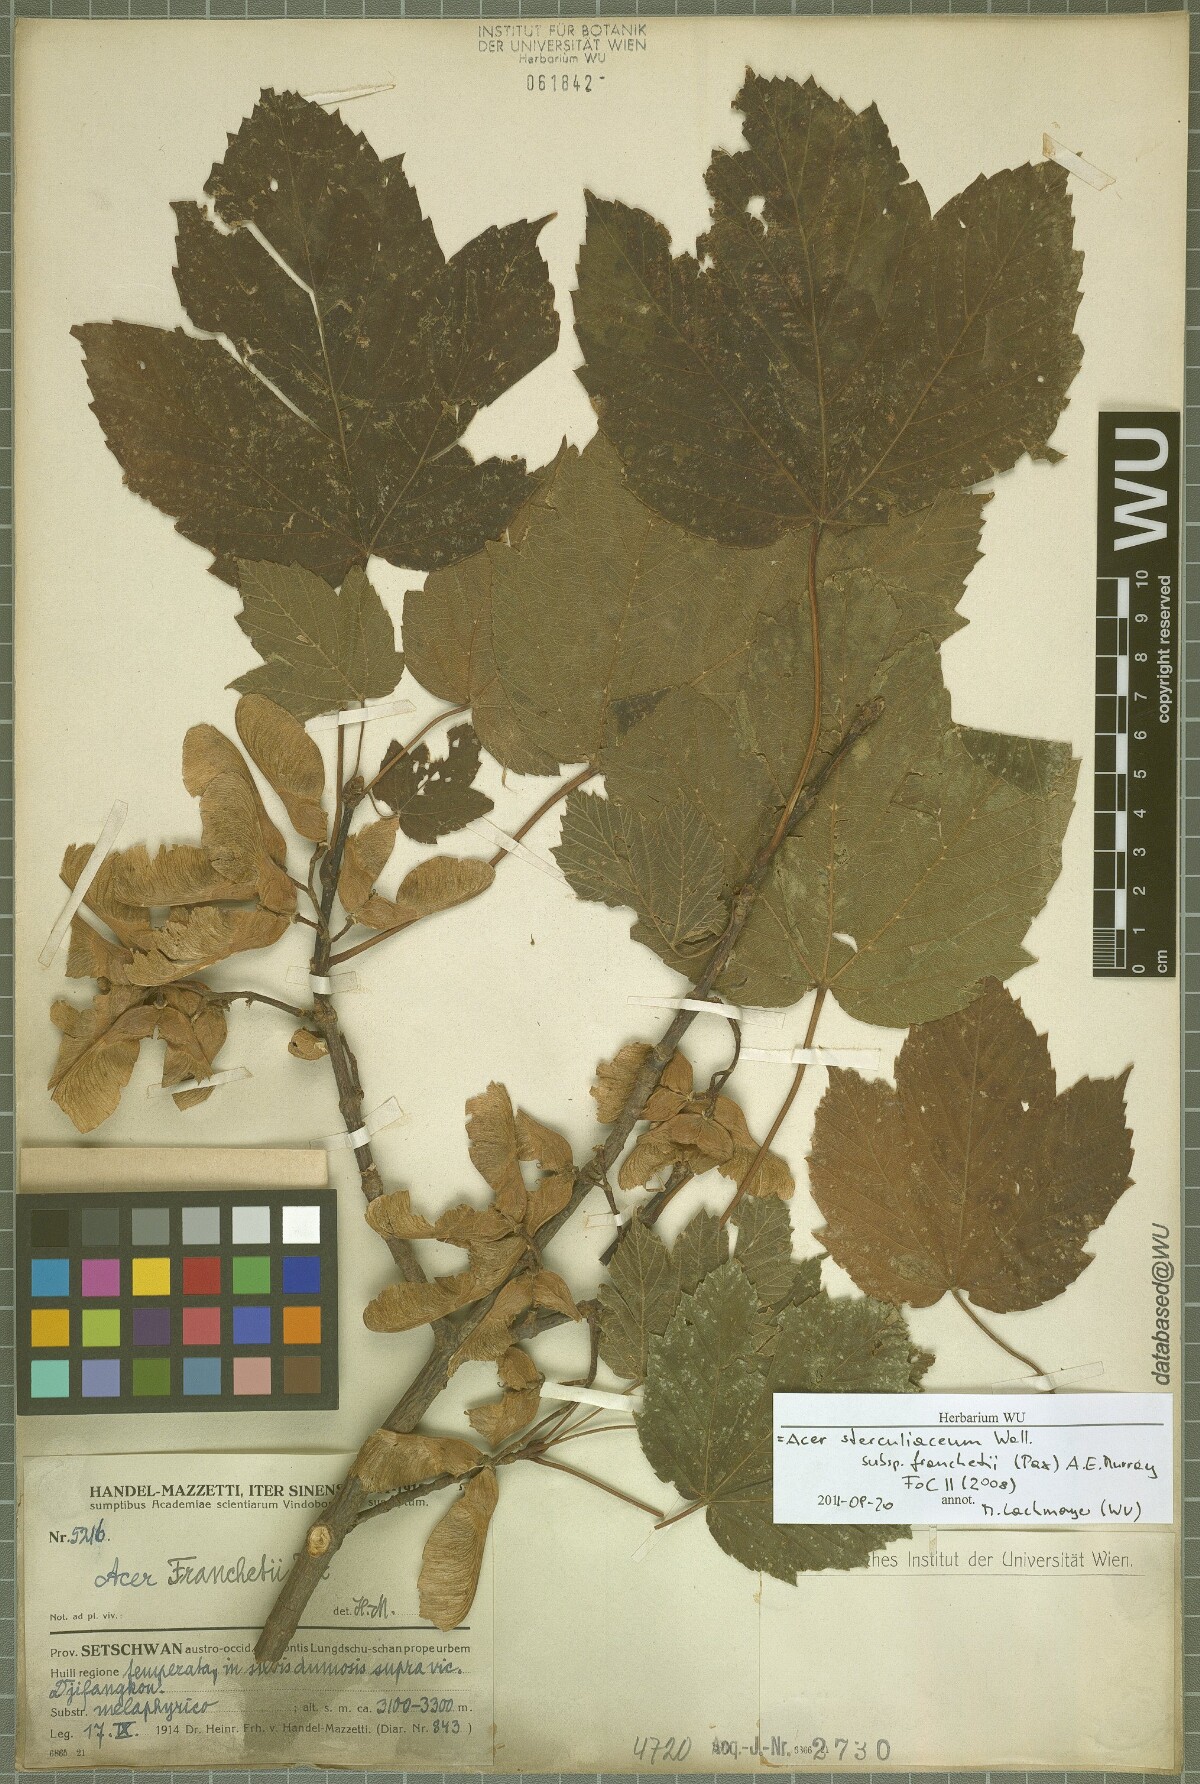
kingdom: Plantae
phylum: Tracheophyta
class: Magnoliopsida
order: Sapindales
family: Sapindaceae
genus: Acer
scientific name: Acer sterculiaceum
